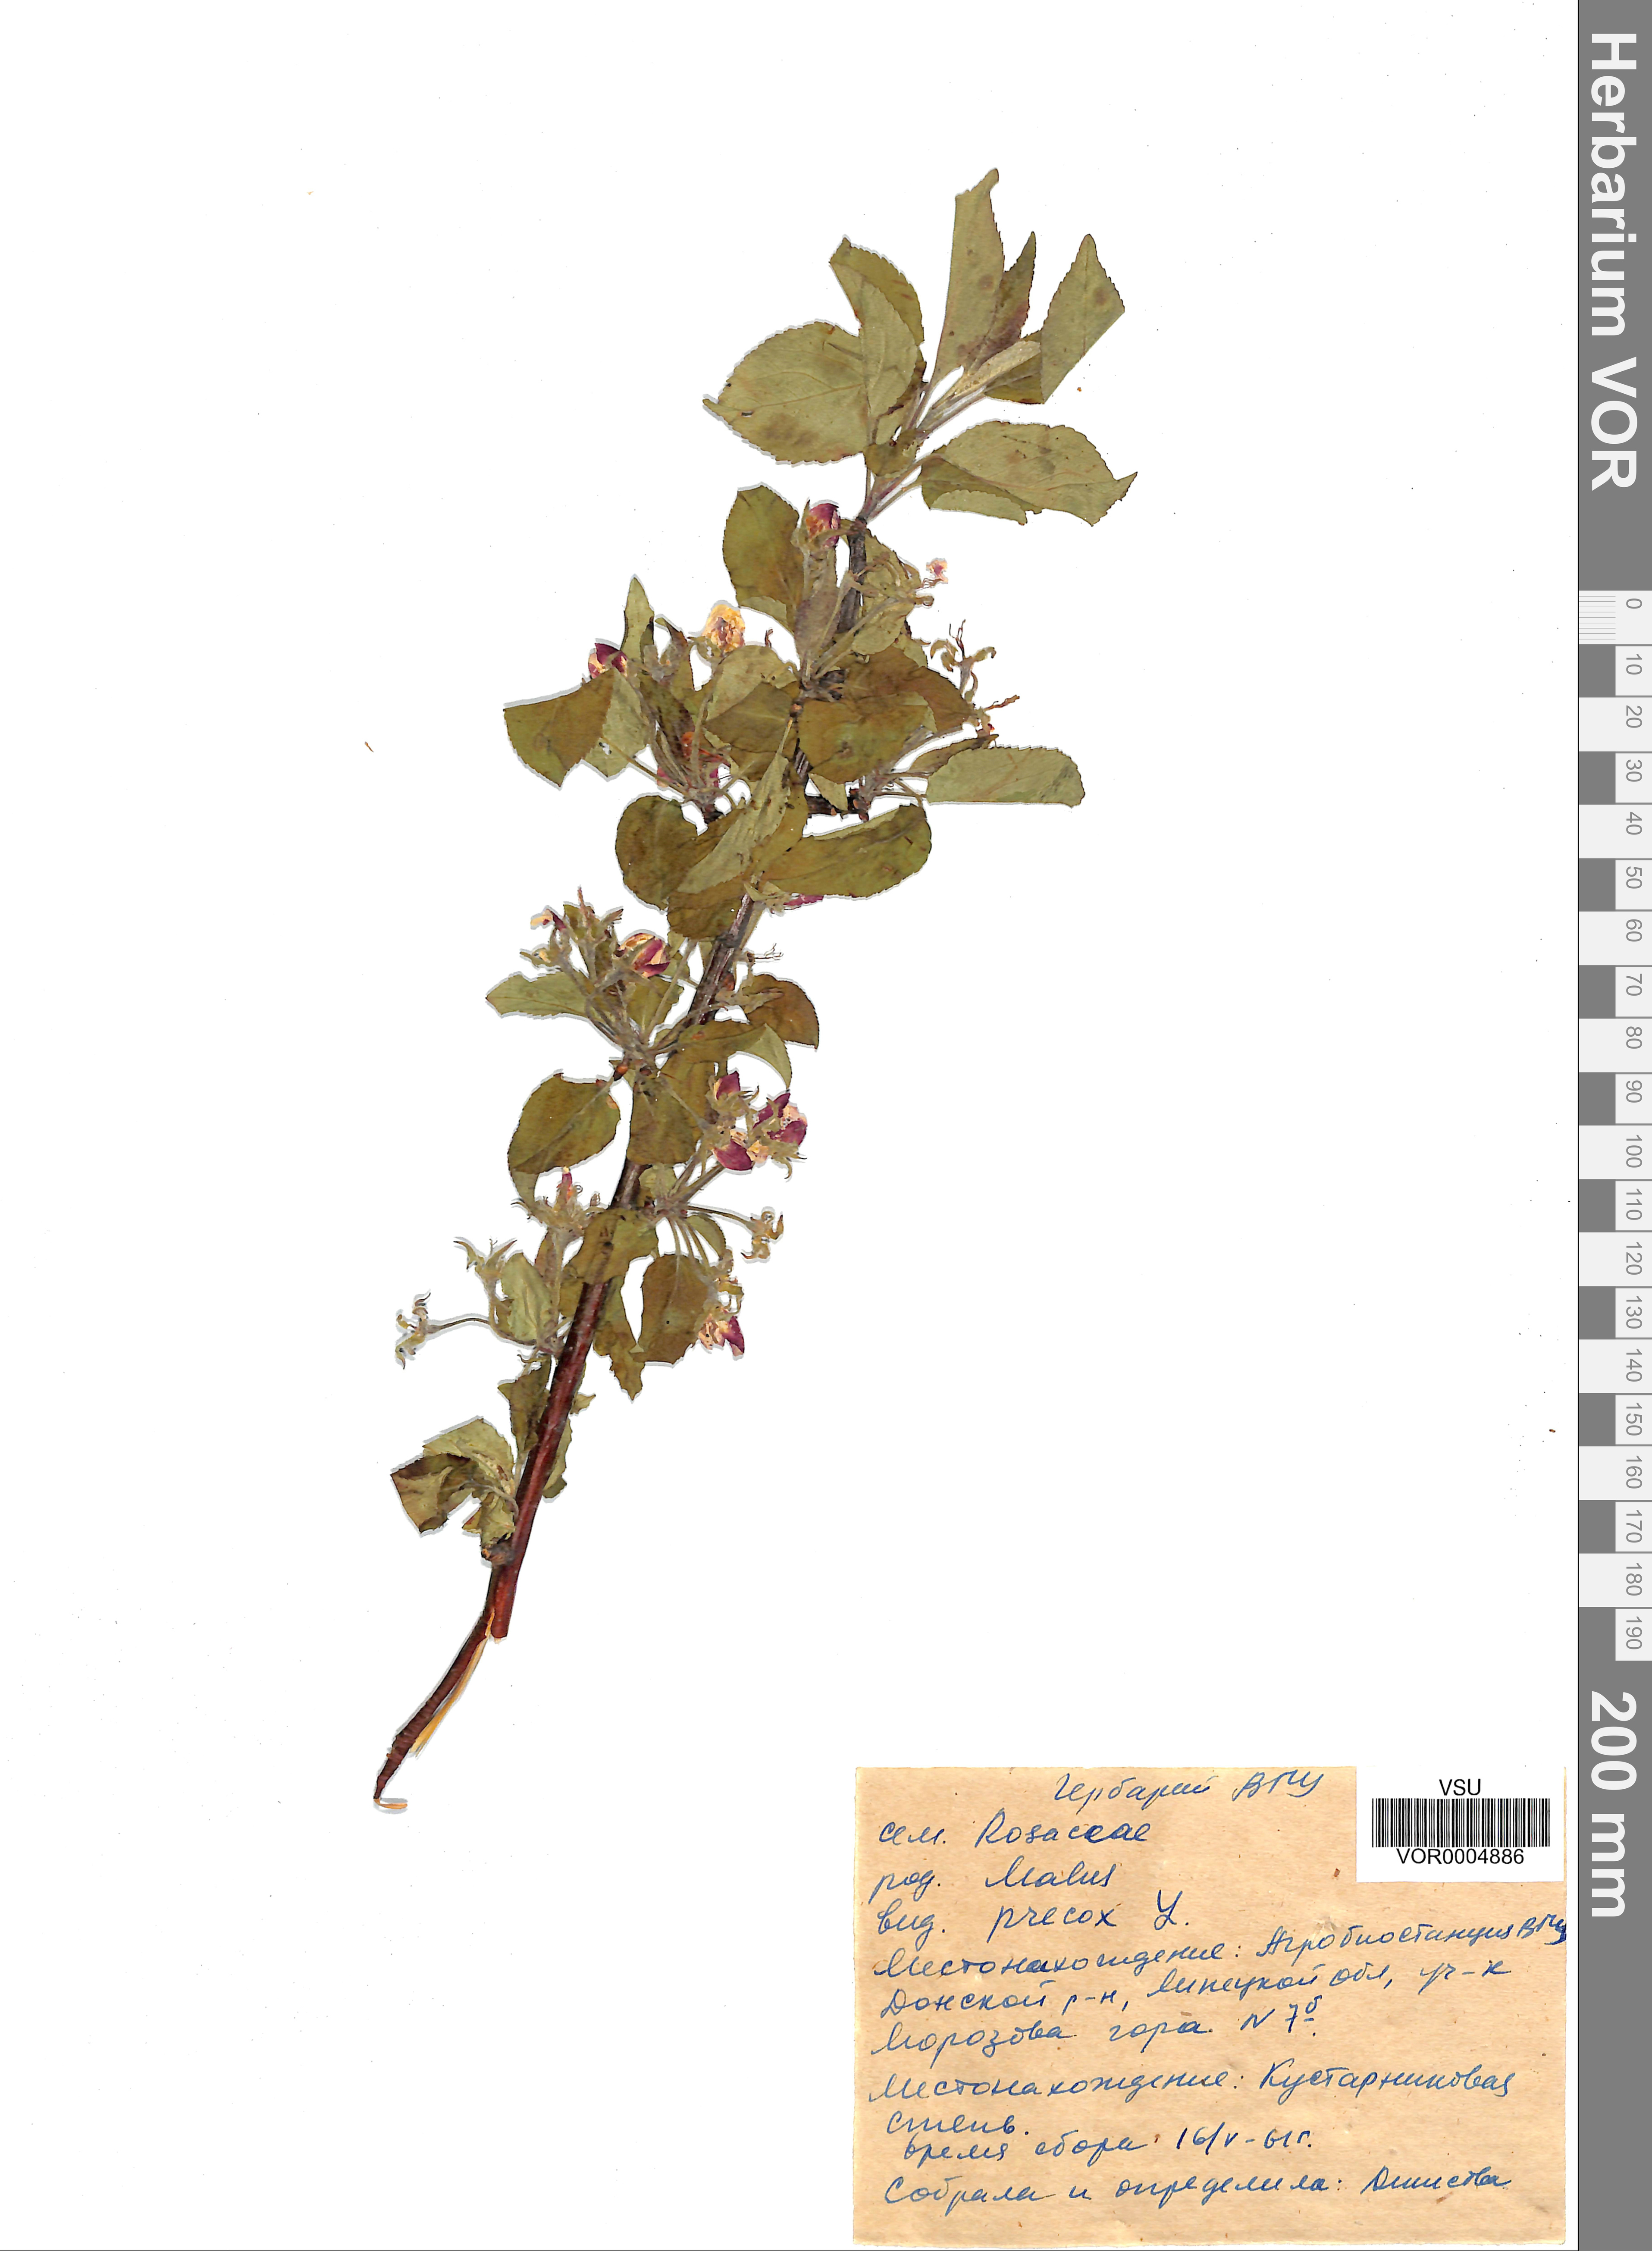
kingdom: Plantae
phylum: Tracheophyta
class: Magnoliopsida
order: Rosales
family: Rosaceae
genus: Malus
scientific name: Malus domestica
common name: Apple
